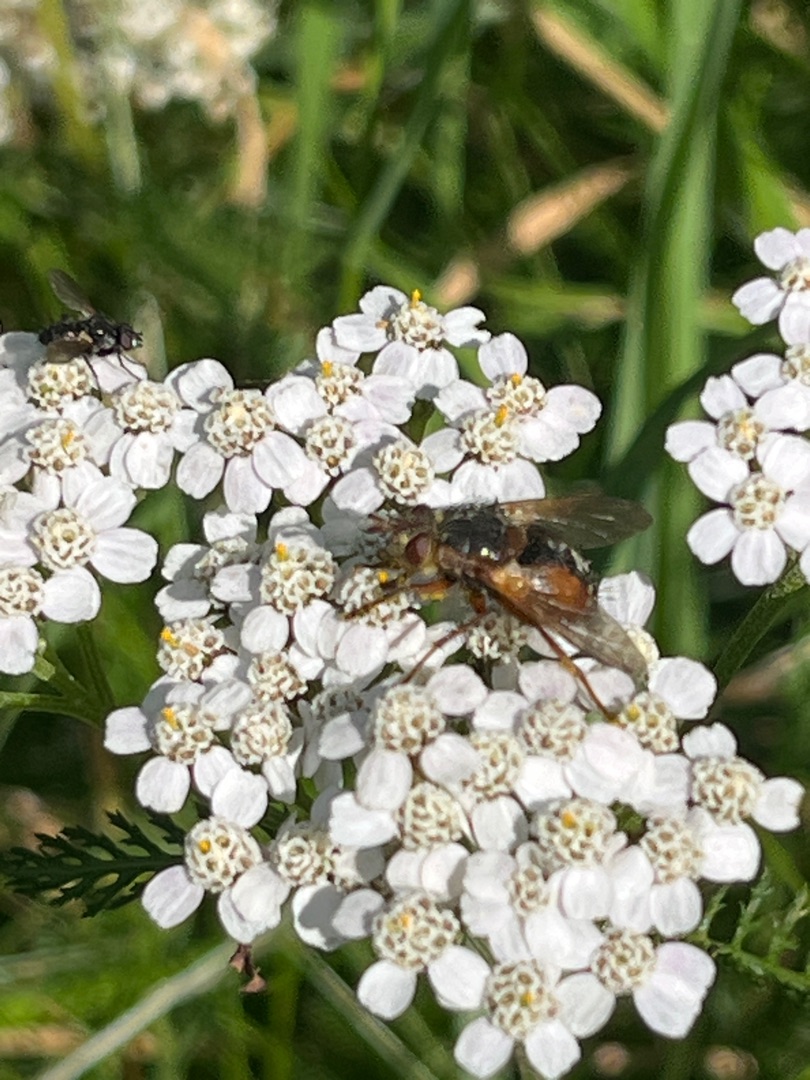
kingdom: Animalia
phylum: Arthropoda
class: Insecta
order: Diptera
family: Tachinidae
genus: Tachina
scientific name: Tachina fera
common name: Mellemfluen oskar
